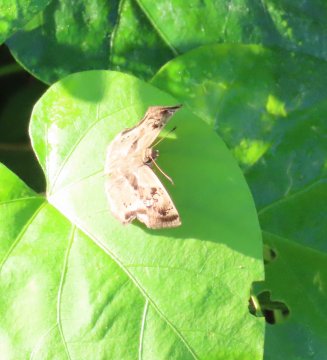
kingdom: Animalia
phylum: Arthropoda
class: Insecta
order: Lepidoptera
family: Hesperiidae
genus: Quadrus
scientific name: Quadrus lugubris
